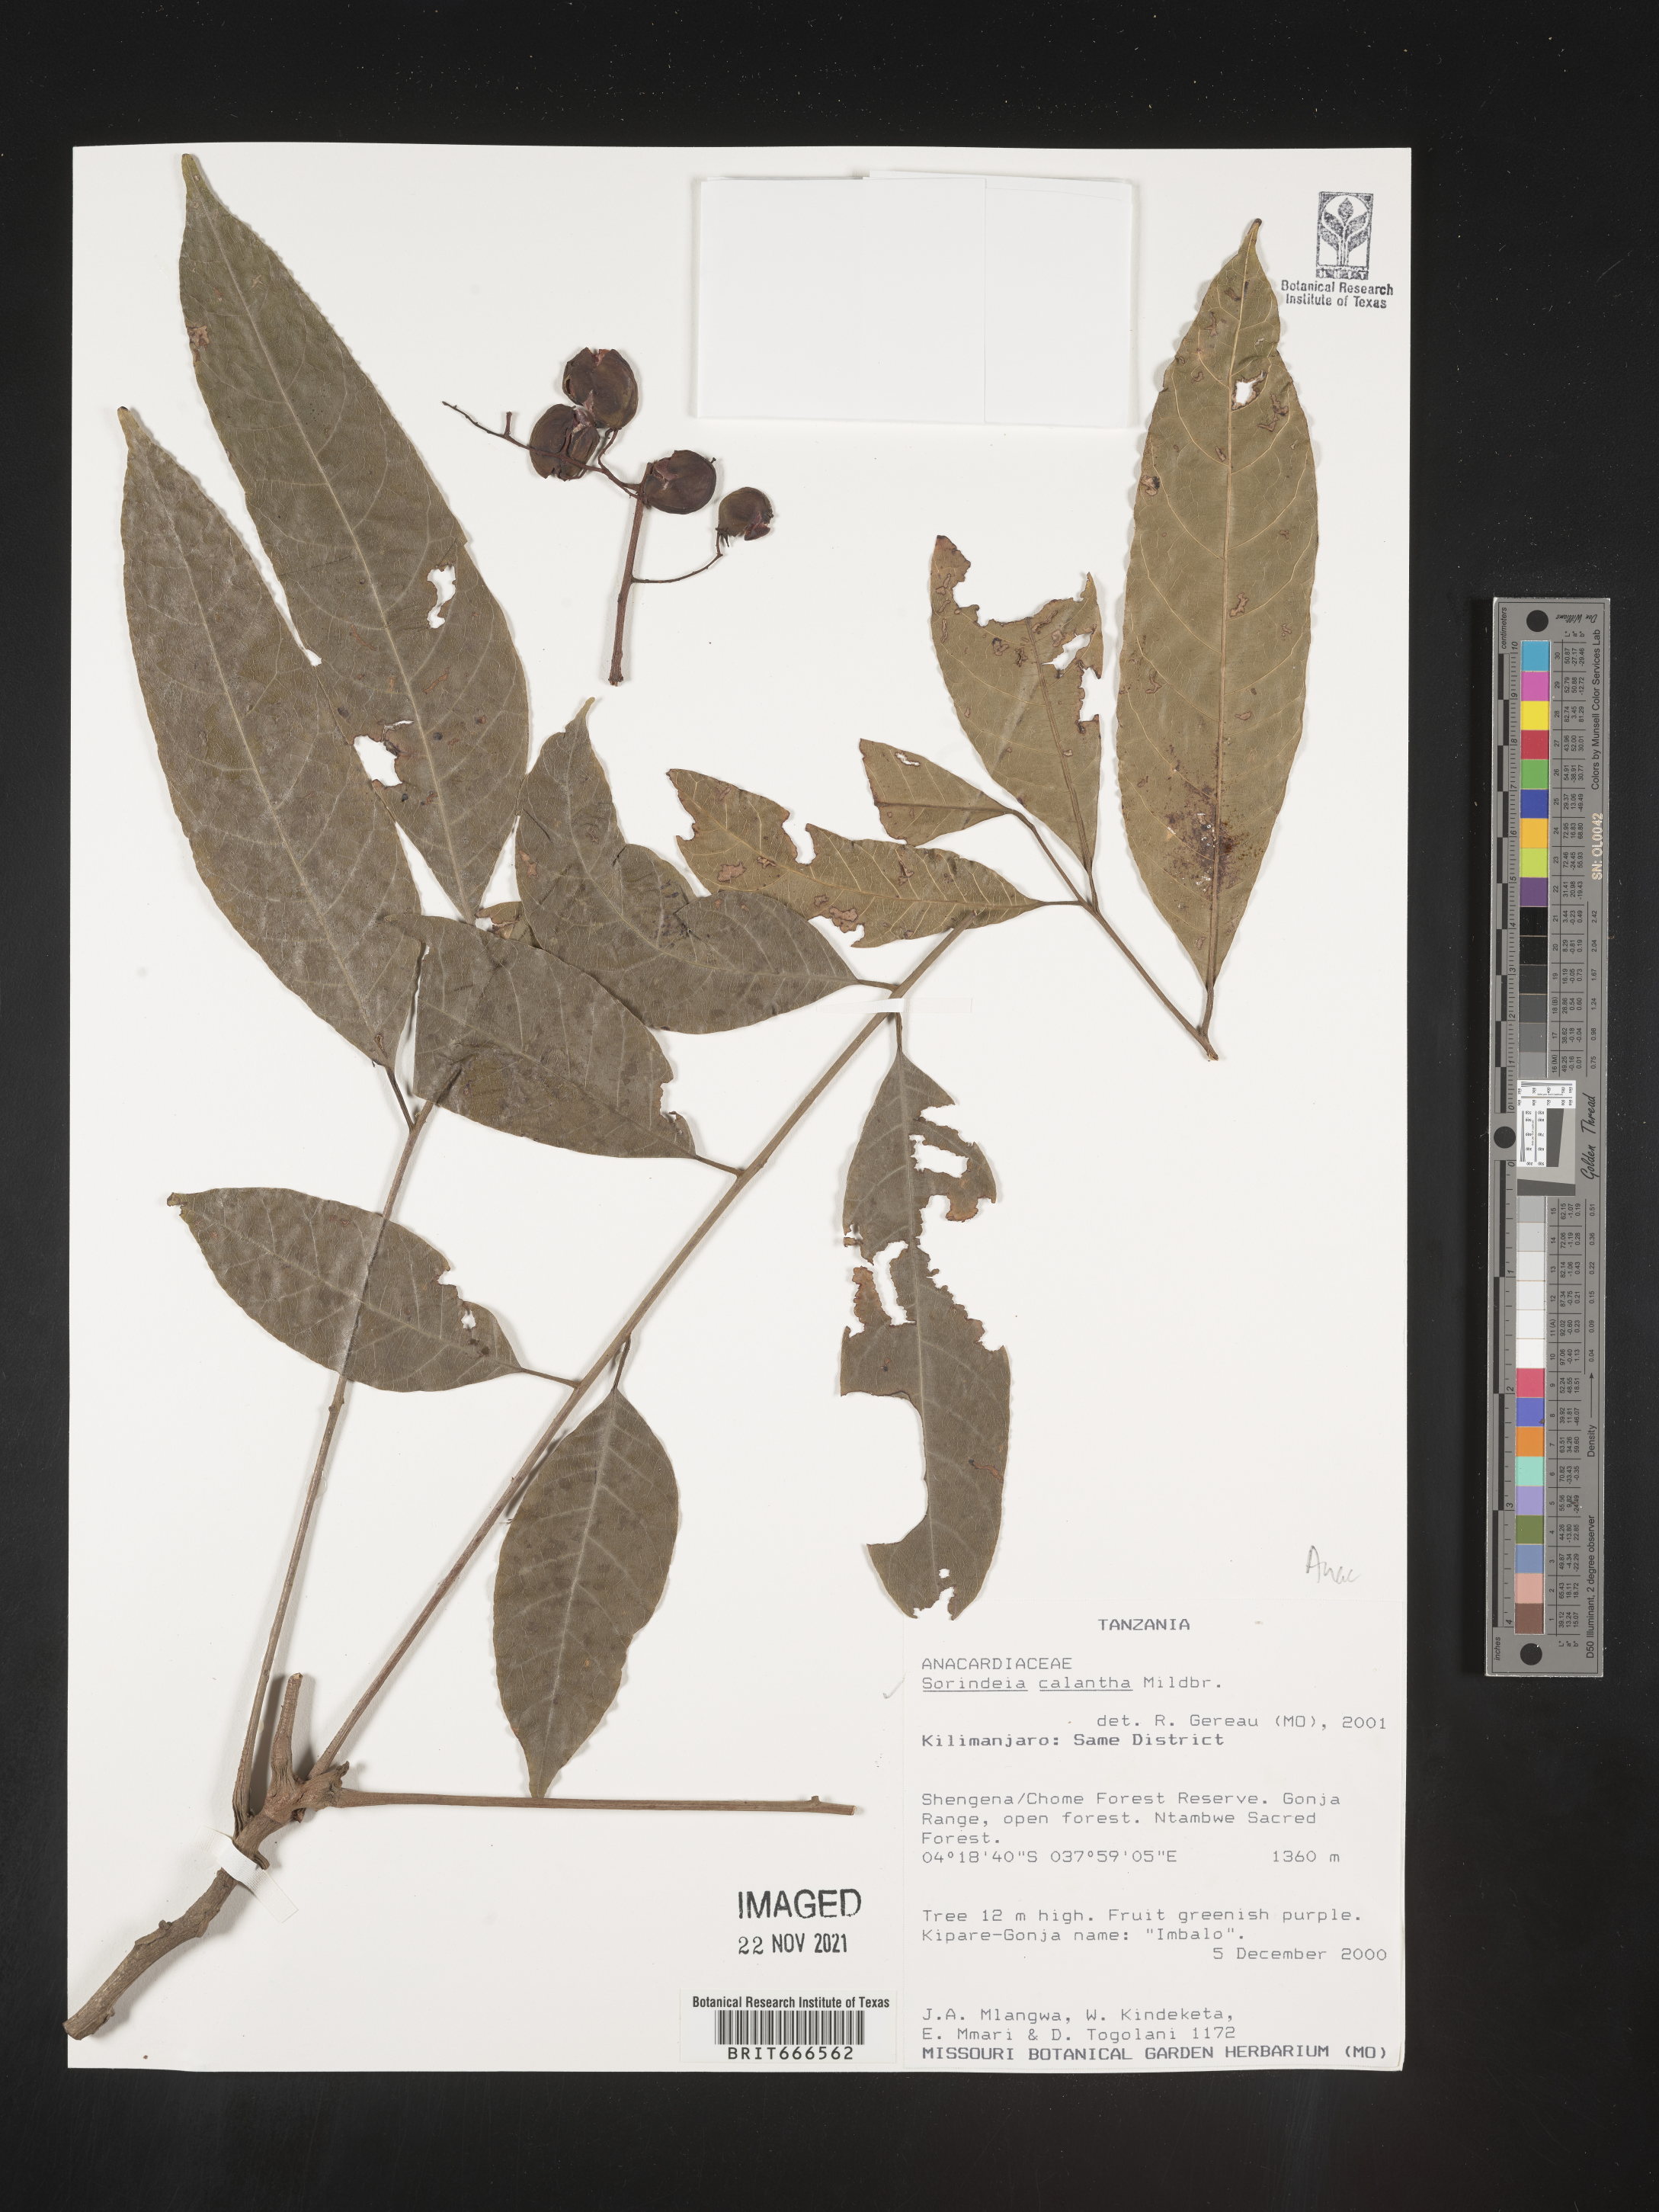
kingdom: Plantae
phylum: Tracheophyta
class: Magnoliopsida
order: Sapindales
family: Anacardiaceae
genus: Sorindeia
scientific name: Sorindeia
